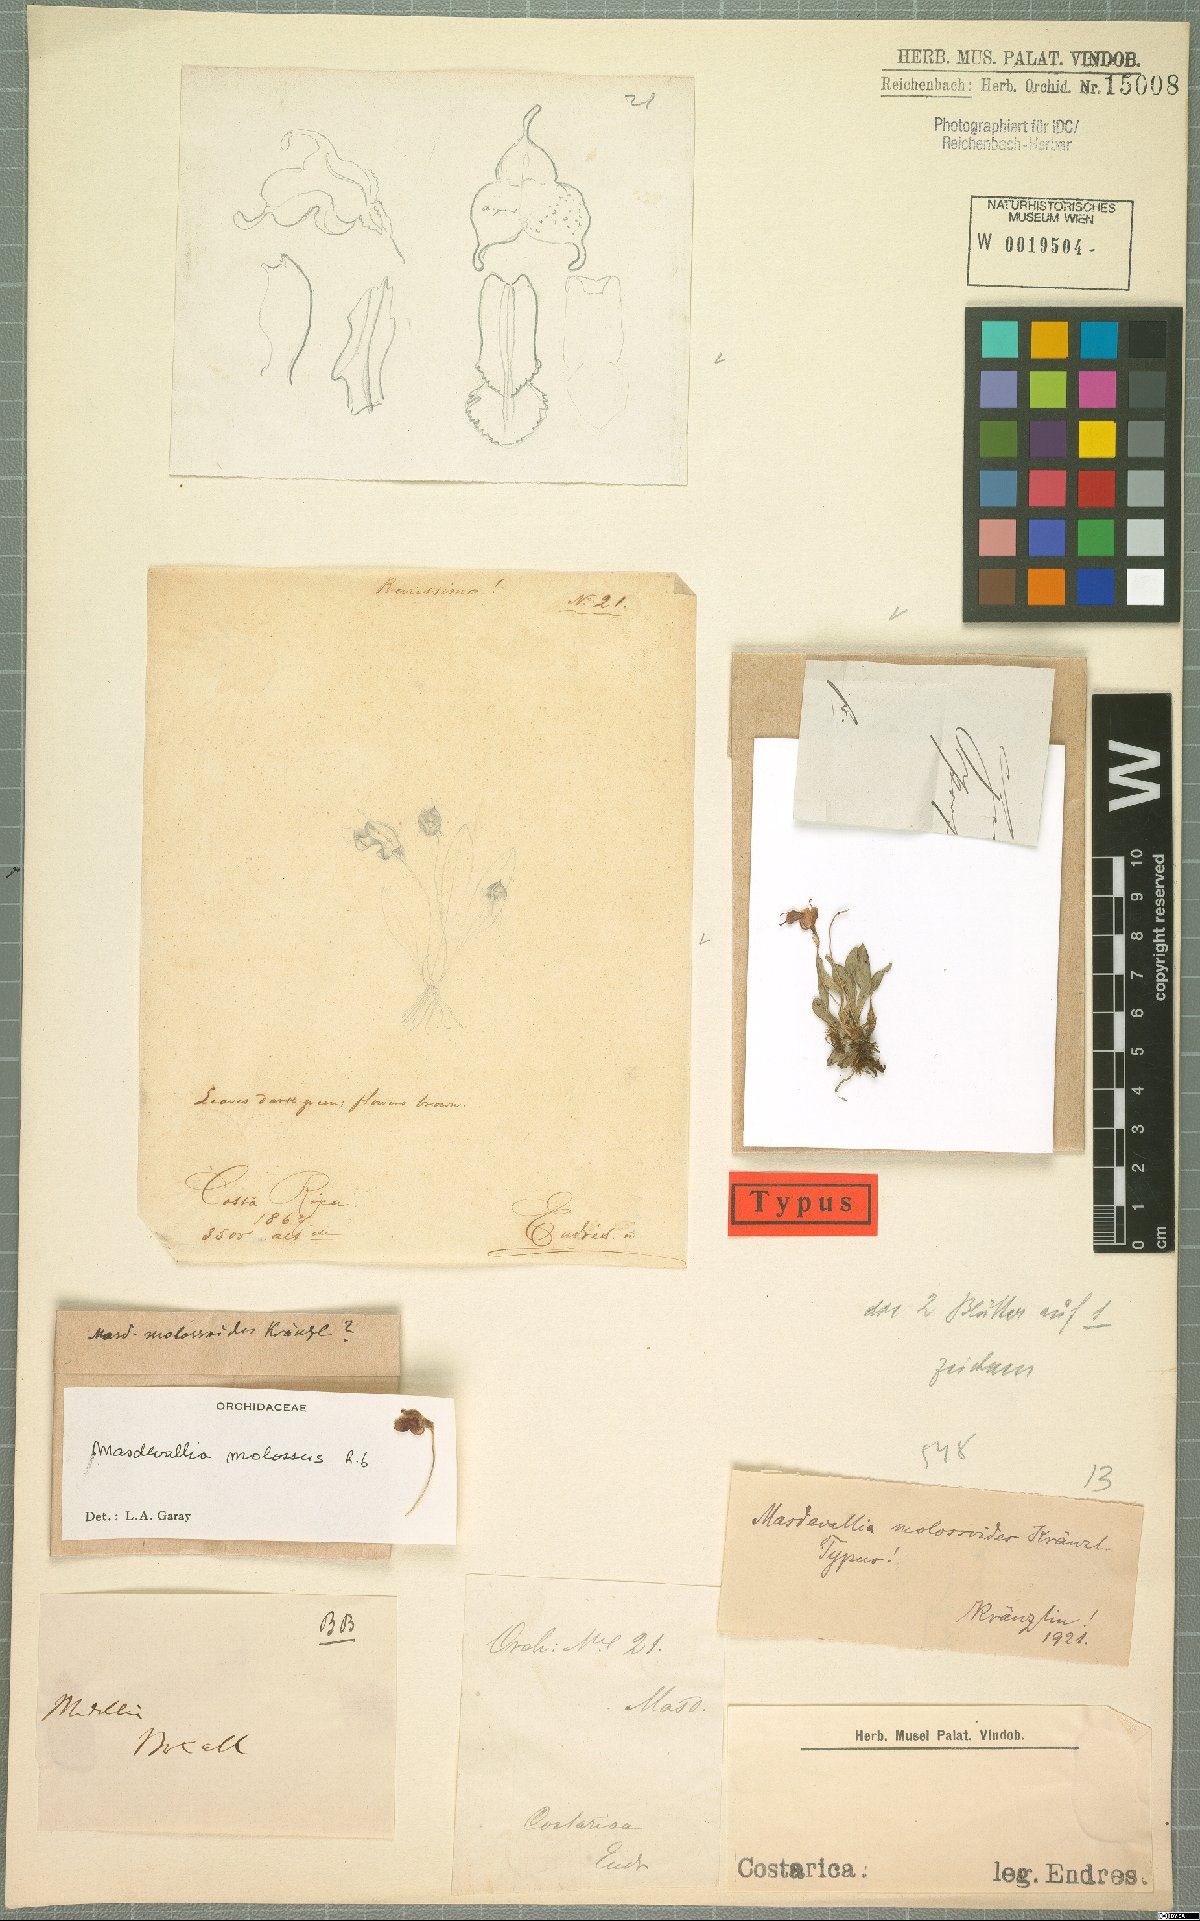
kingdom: Plantae
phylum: Tracheophyta
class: Liliopsida
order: Asparagales
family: Orchidaceae
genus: Masdevallia
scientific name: Masdevallia molossoides
